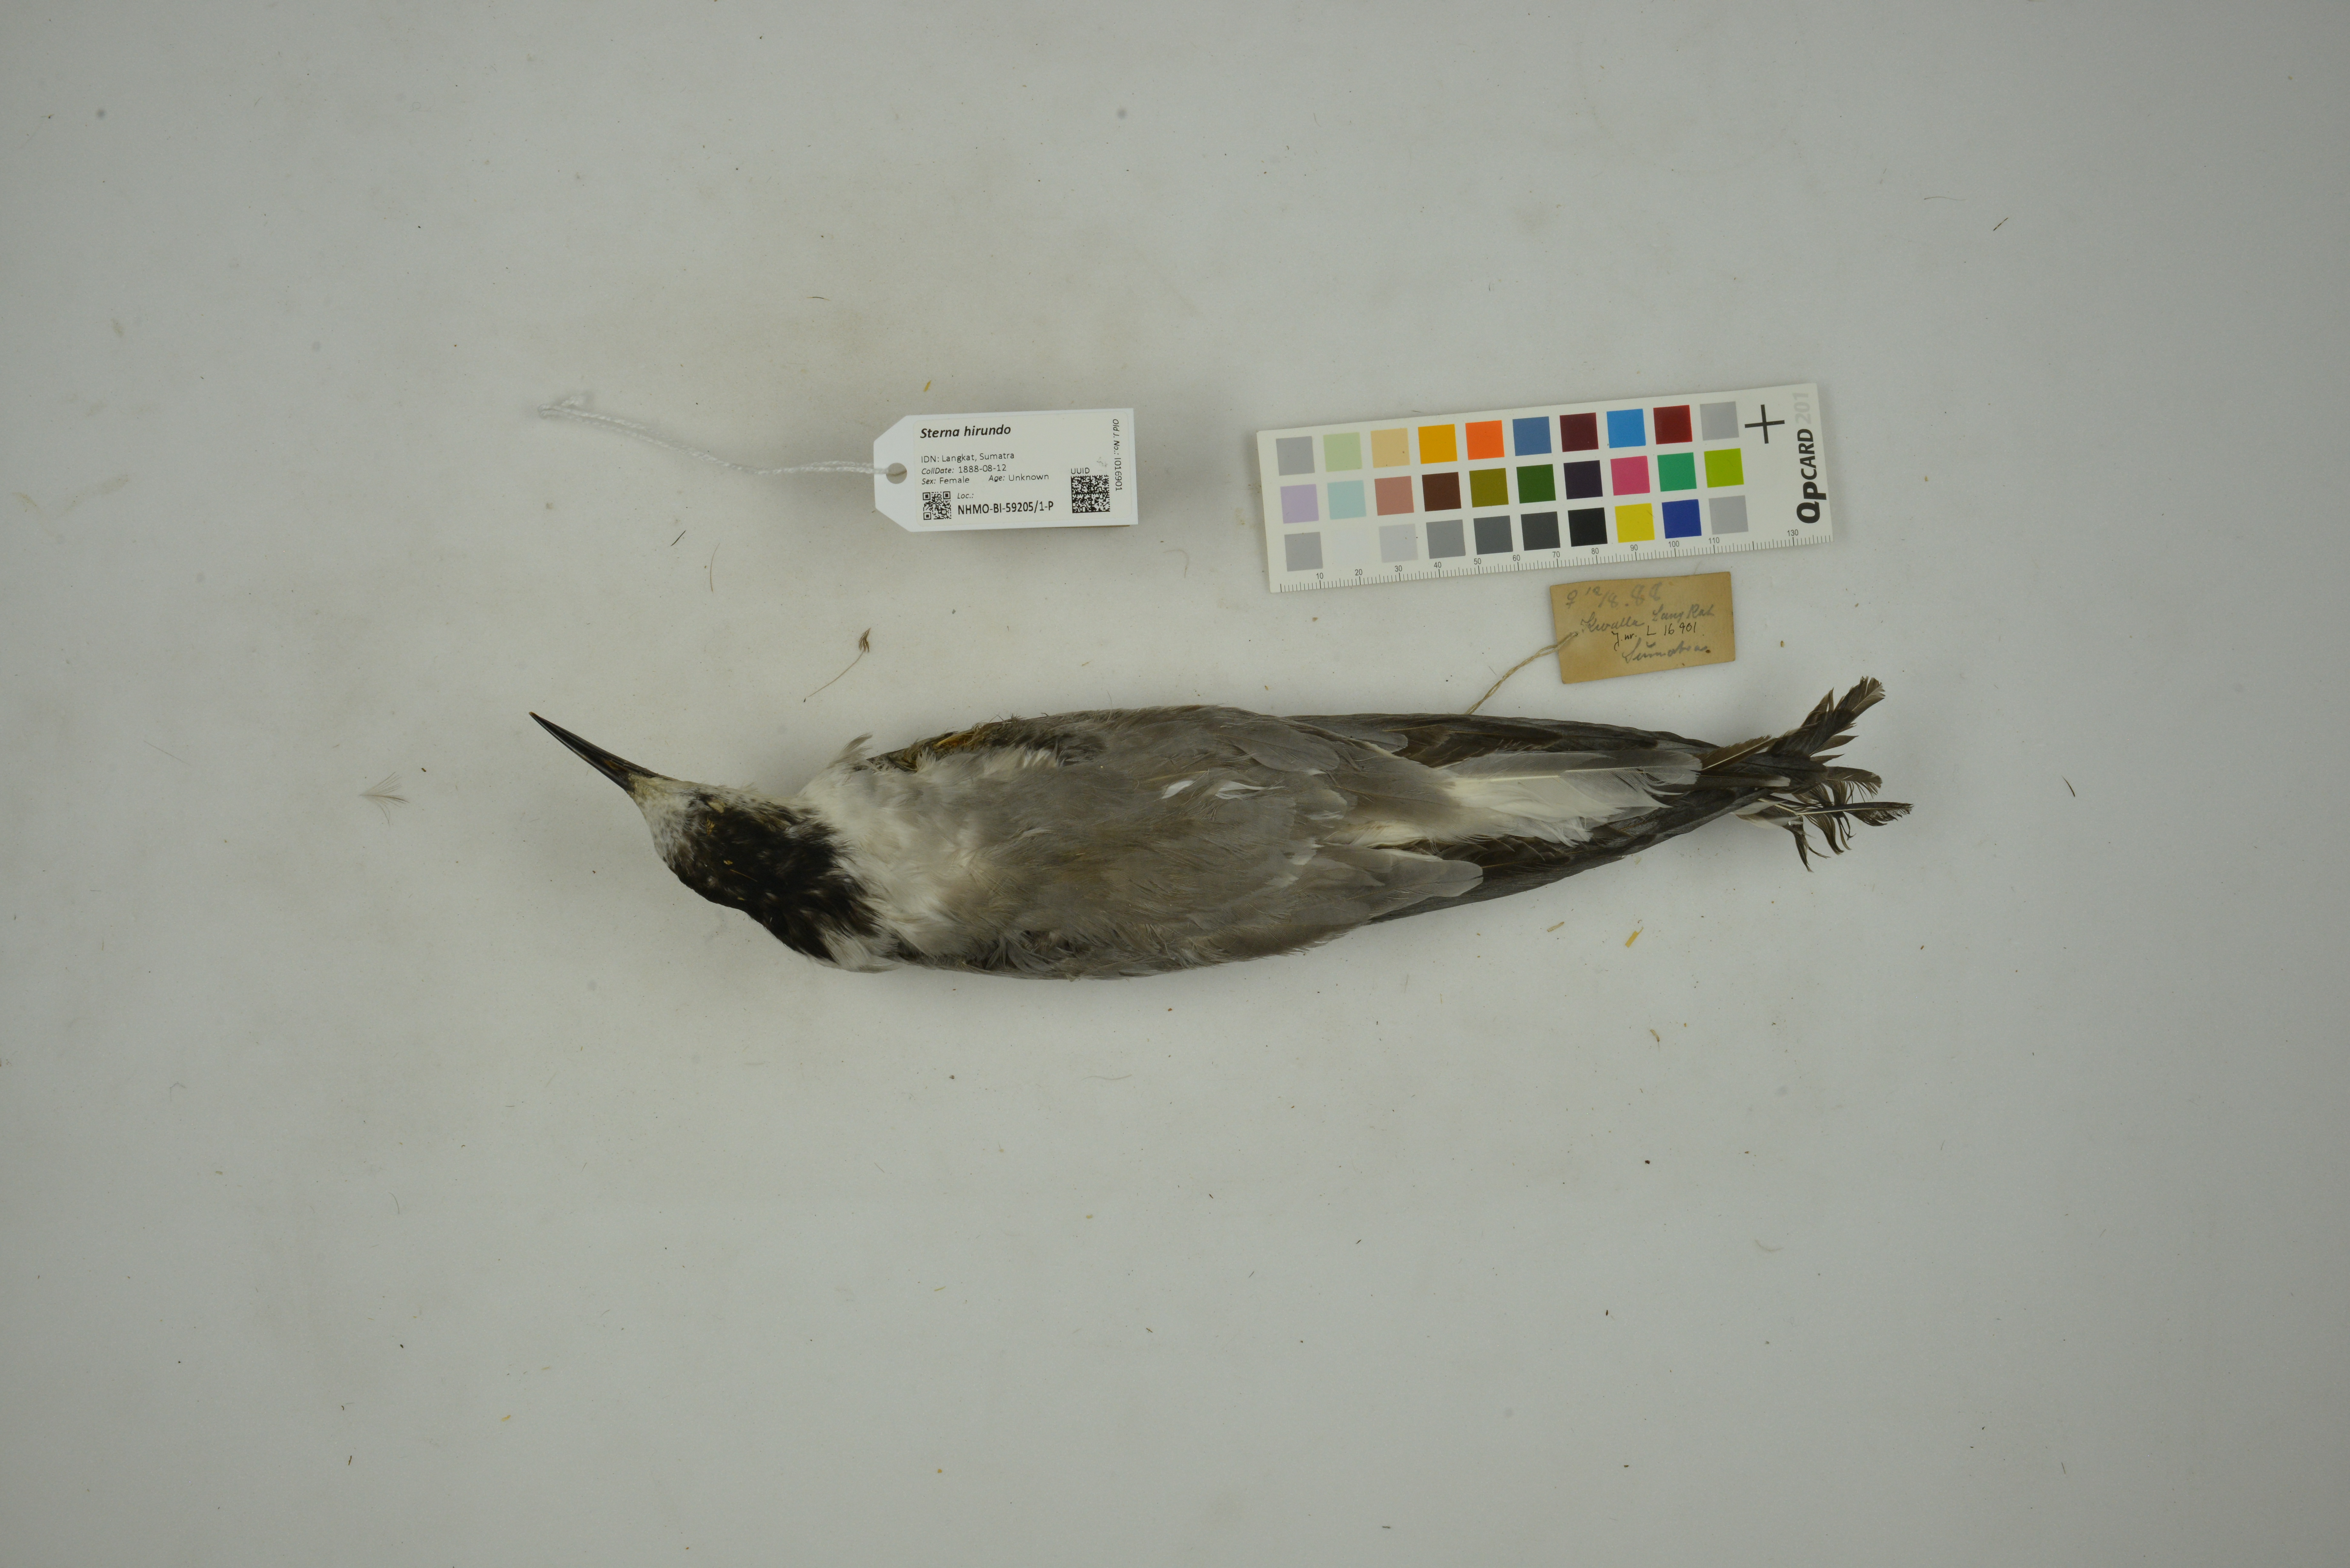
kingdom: Animalia
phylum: Chordata
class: Aves
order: Charadriiformes
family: Laridae
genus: Sterna
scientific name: Sterna hirundo
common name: Common tern
